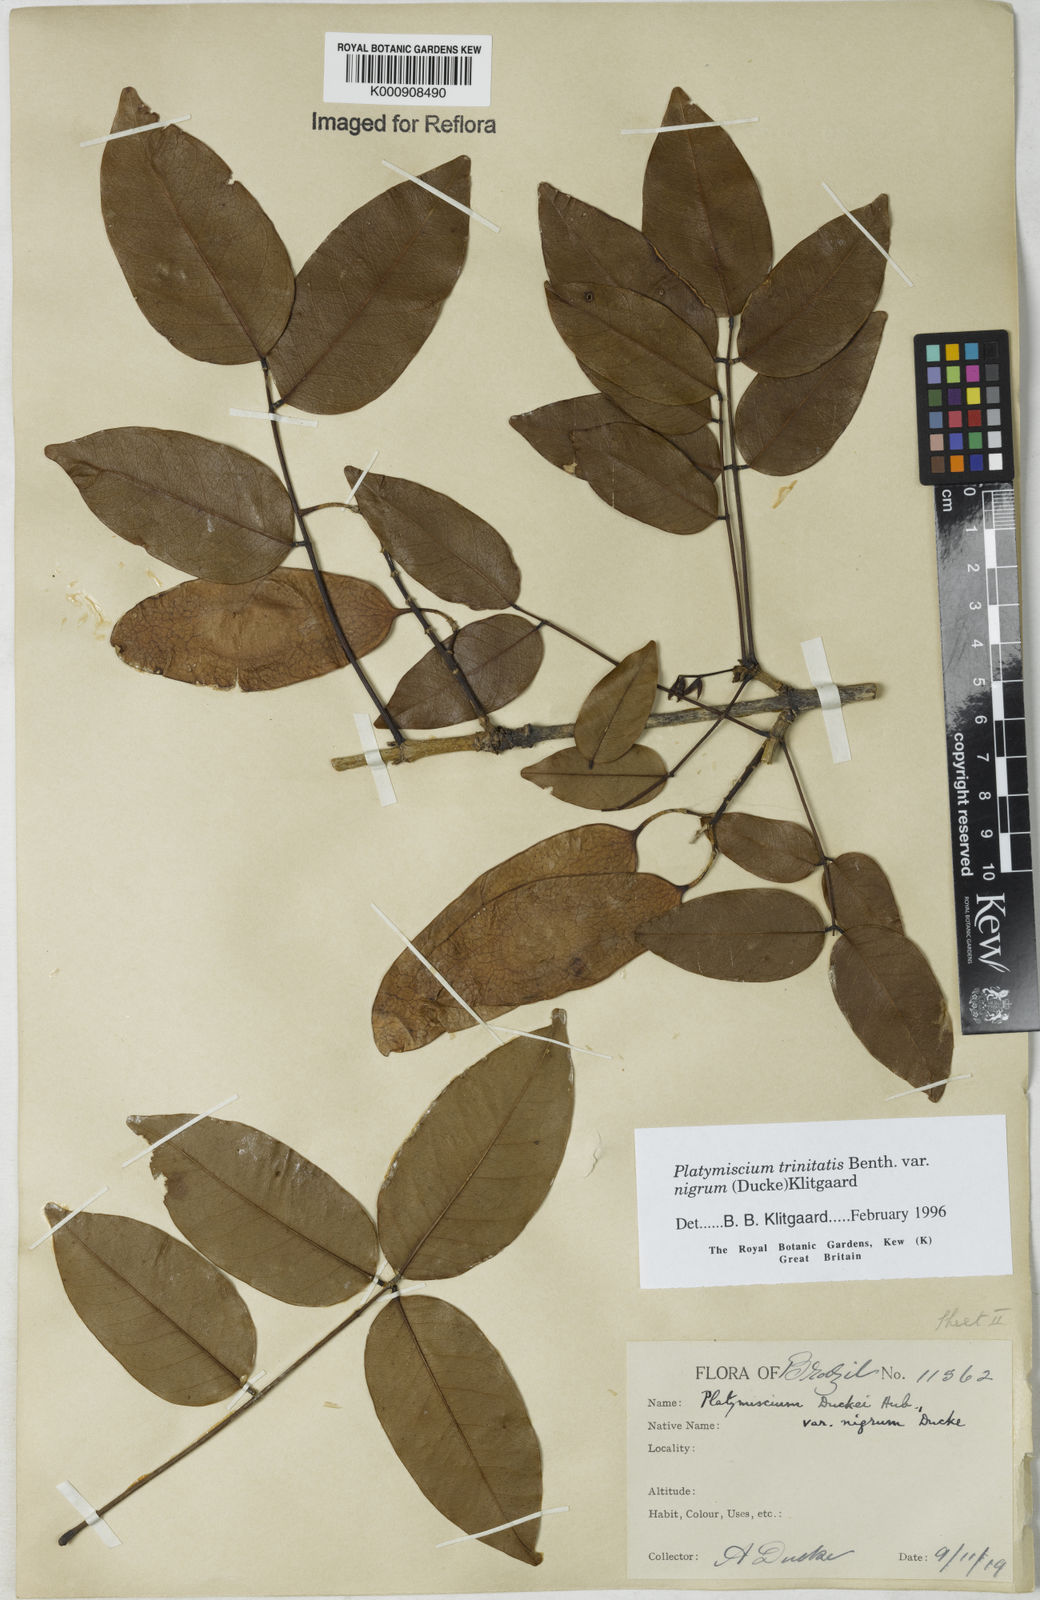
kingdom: Plantae
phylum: Tracheophyta
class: Magnoliopsida
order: Fabales
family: Fabaceae
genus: Platymiscium
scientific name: Platymiscium trinitatis
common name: Trinidad macawood
